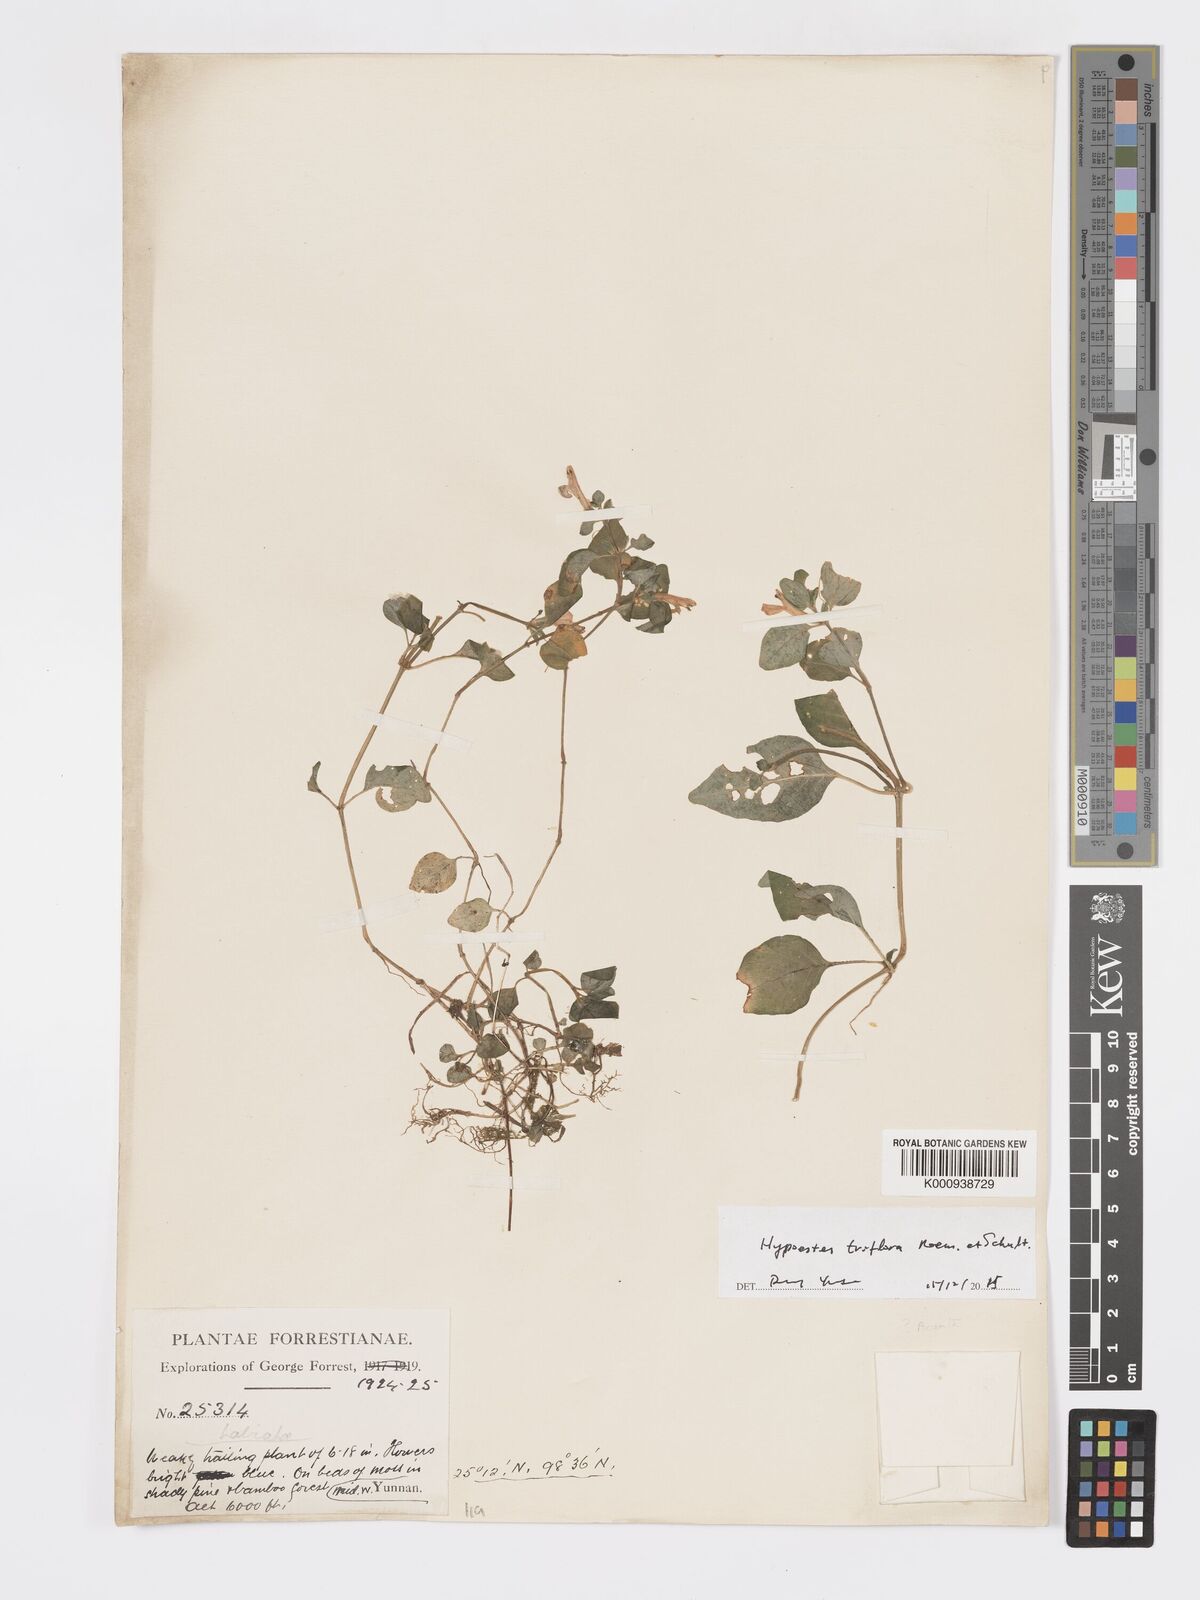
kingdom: Plantae
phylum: Tracheophyta
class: Magnoliopsida
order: Lamiales
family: Acanthaceae
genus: Hypoestes
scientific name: Hypoestes triflora
